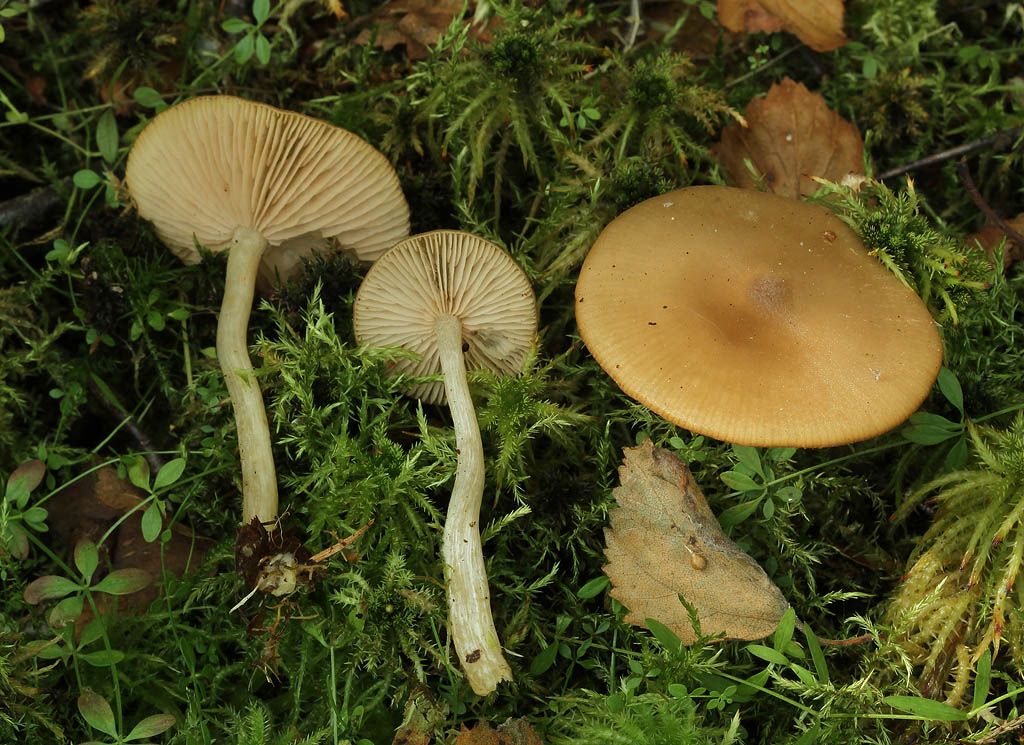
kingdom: Fungi
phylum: Basidiomycota
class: Agaricomycetes
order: Agaricales
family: Entolomataceae
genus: Entoloma
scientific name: Entoloma sericatum
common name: rank rødblad
